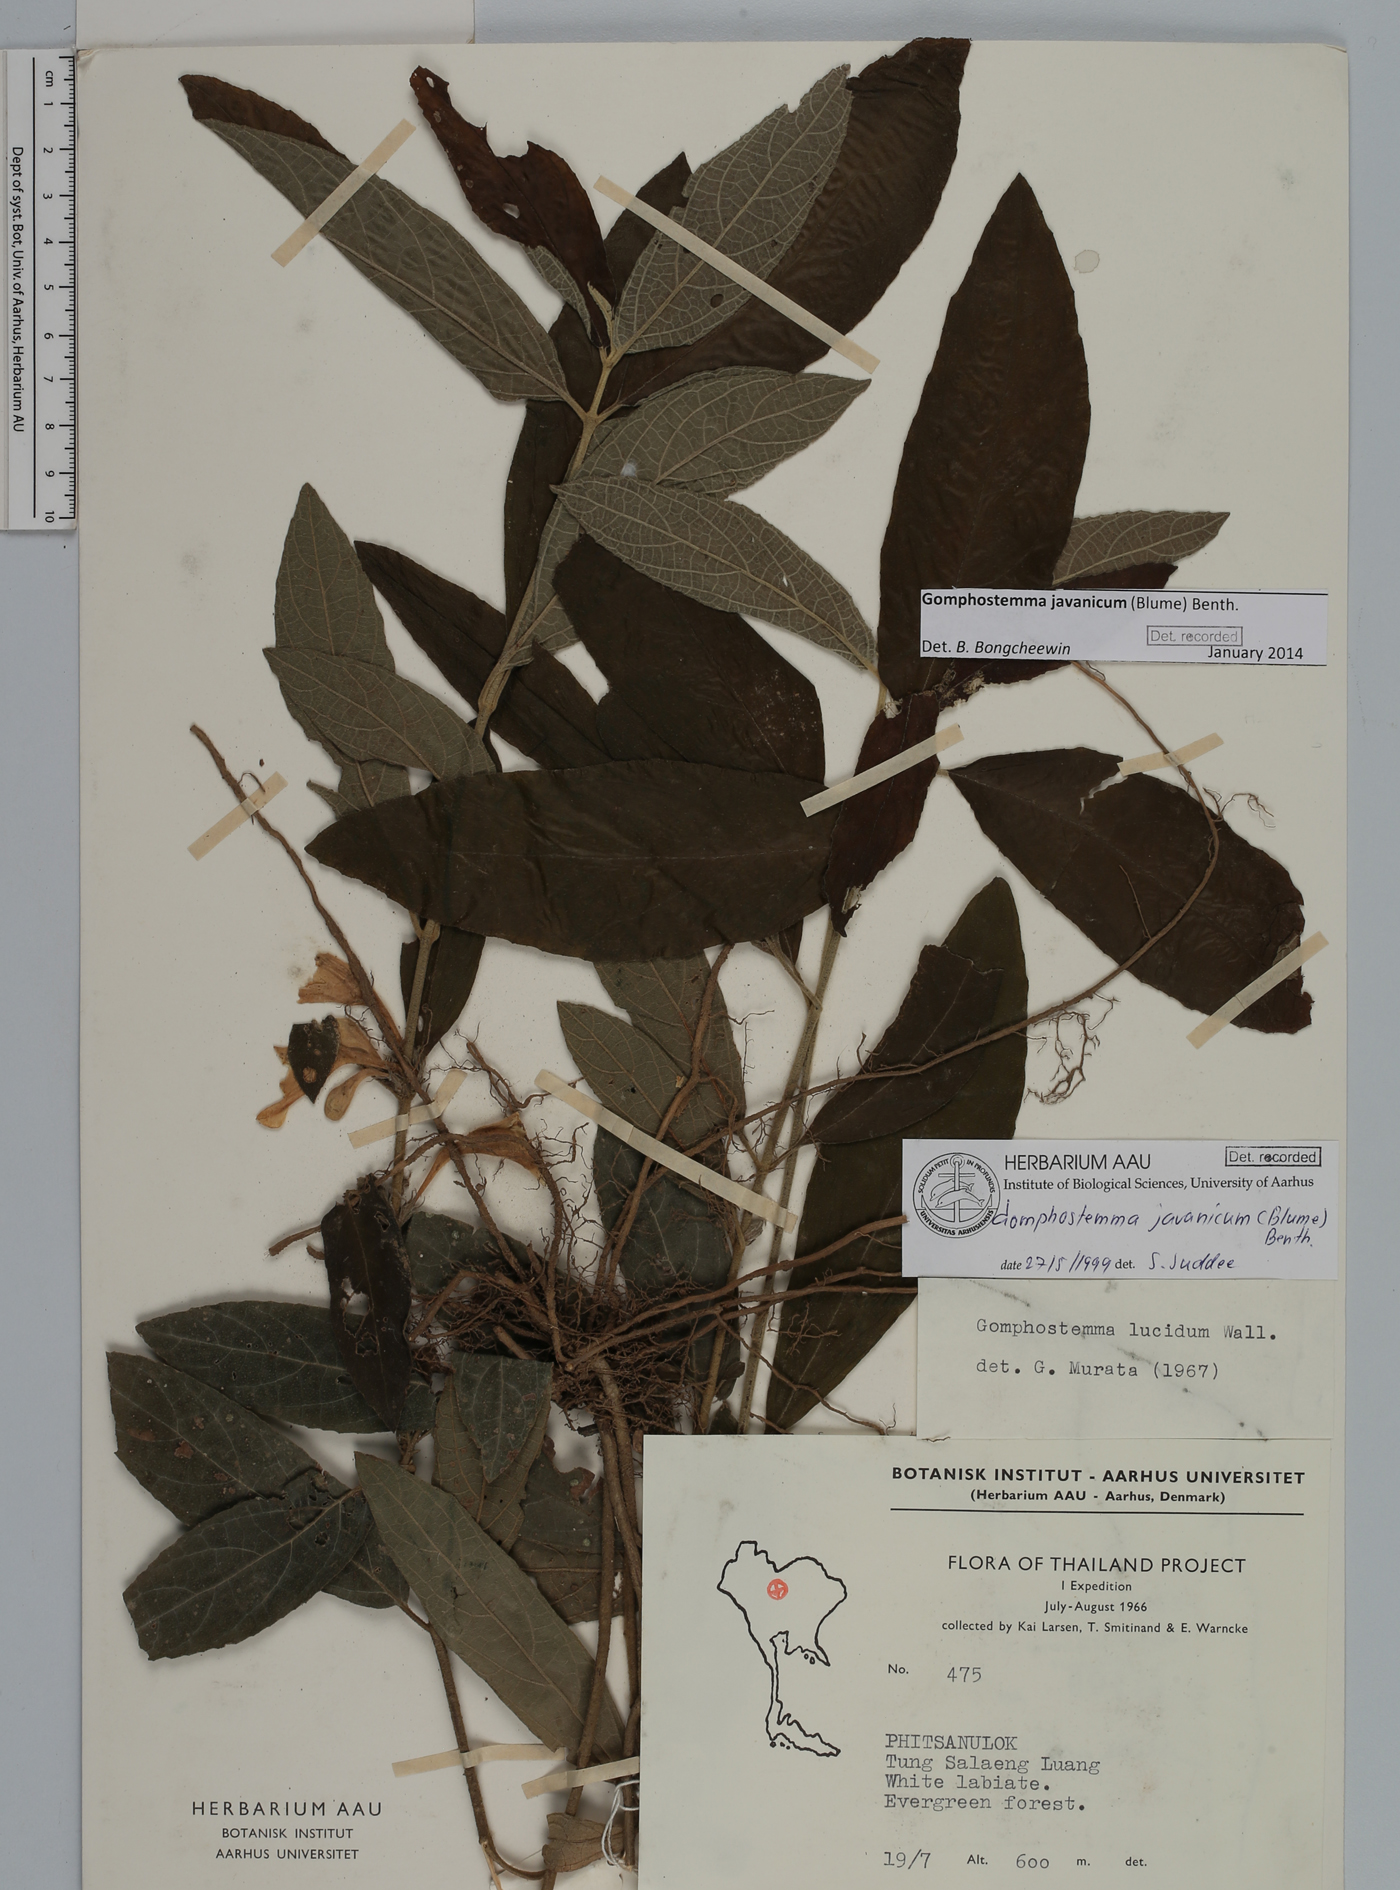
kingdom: Plantae
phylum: Tracheophyta
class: Magnoliopsida
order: Lamiales
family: Lamiaceae
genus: Gomphostemma
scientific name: Gomphostemma javanicum
